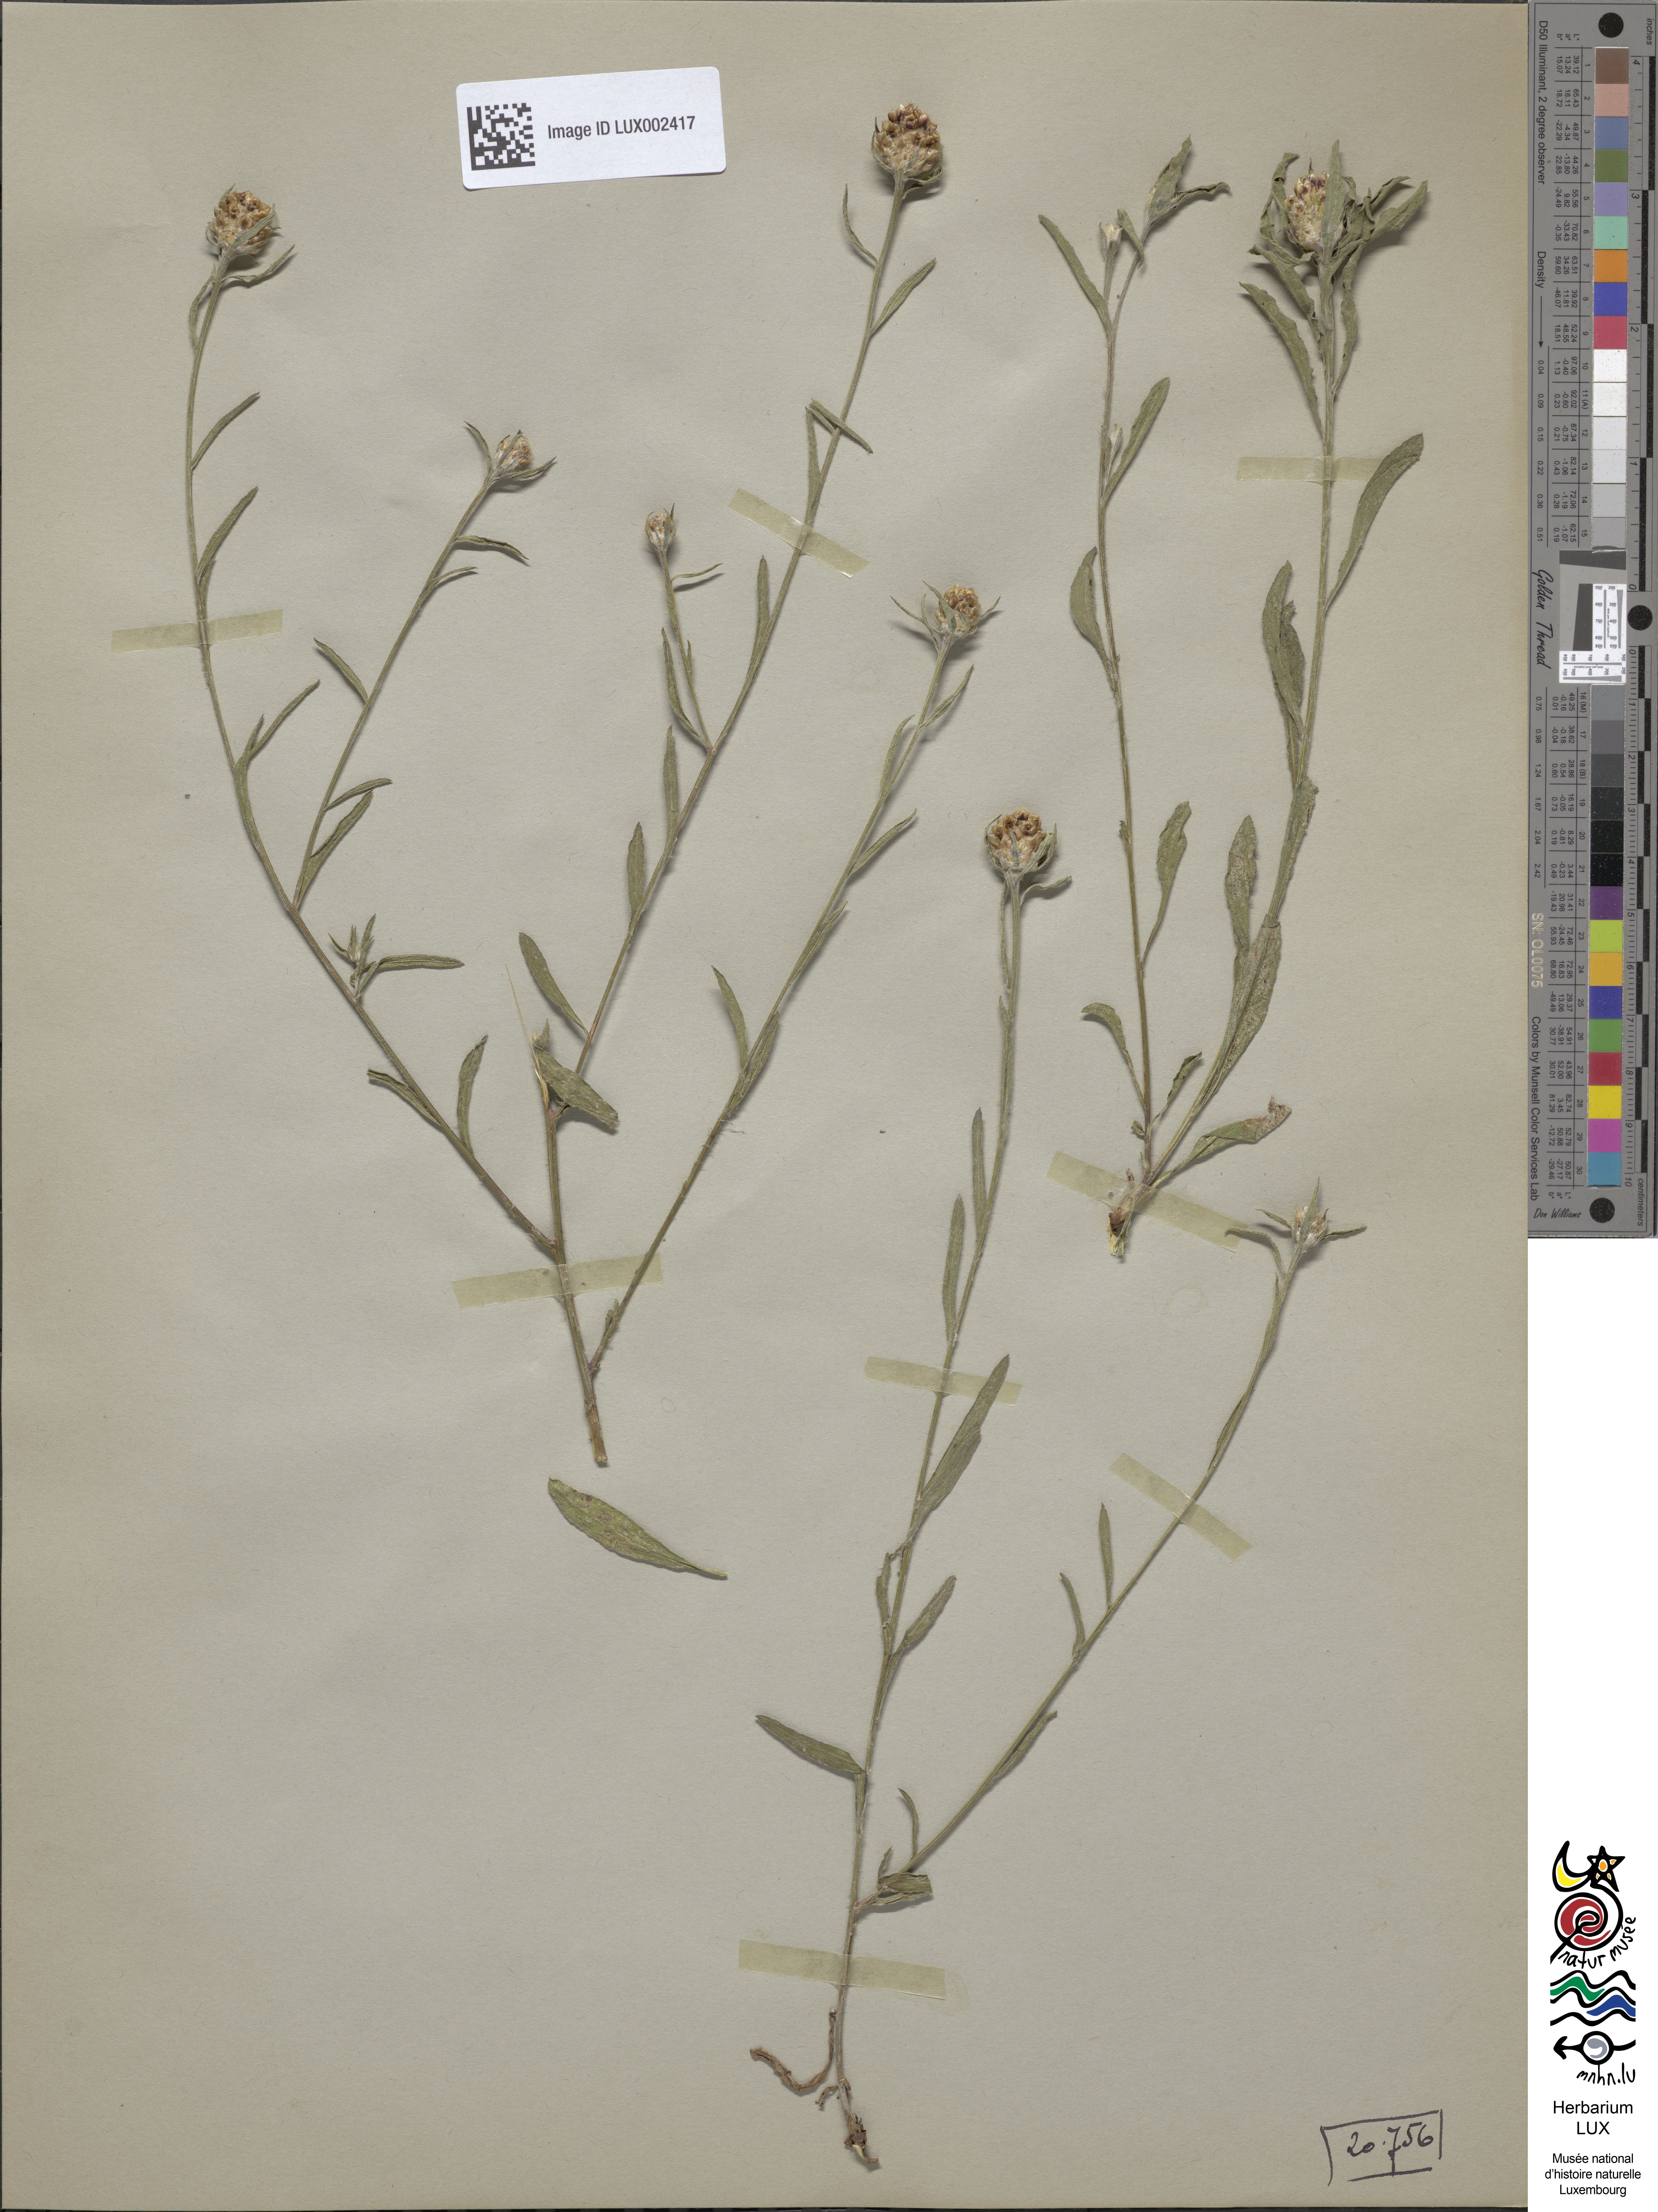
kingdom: Plantae
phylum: Tracheophyta
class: Magnoliopsida
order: Asterales
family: Asteraceae
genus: Centaurea
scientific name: Centaurea pannonica
